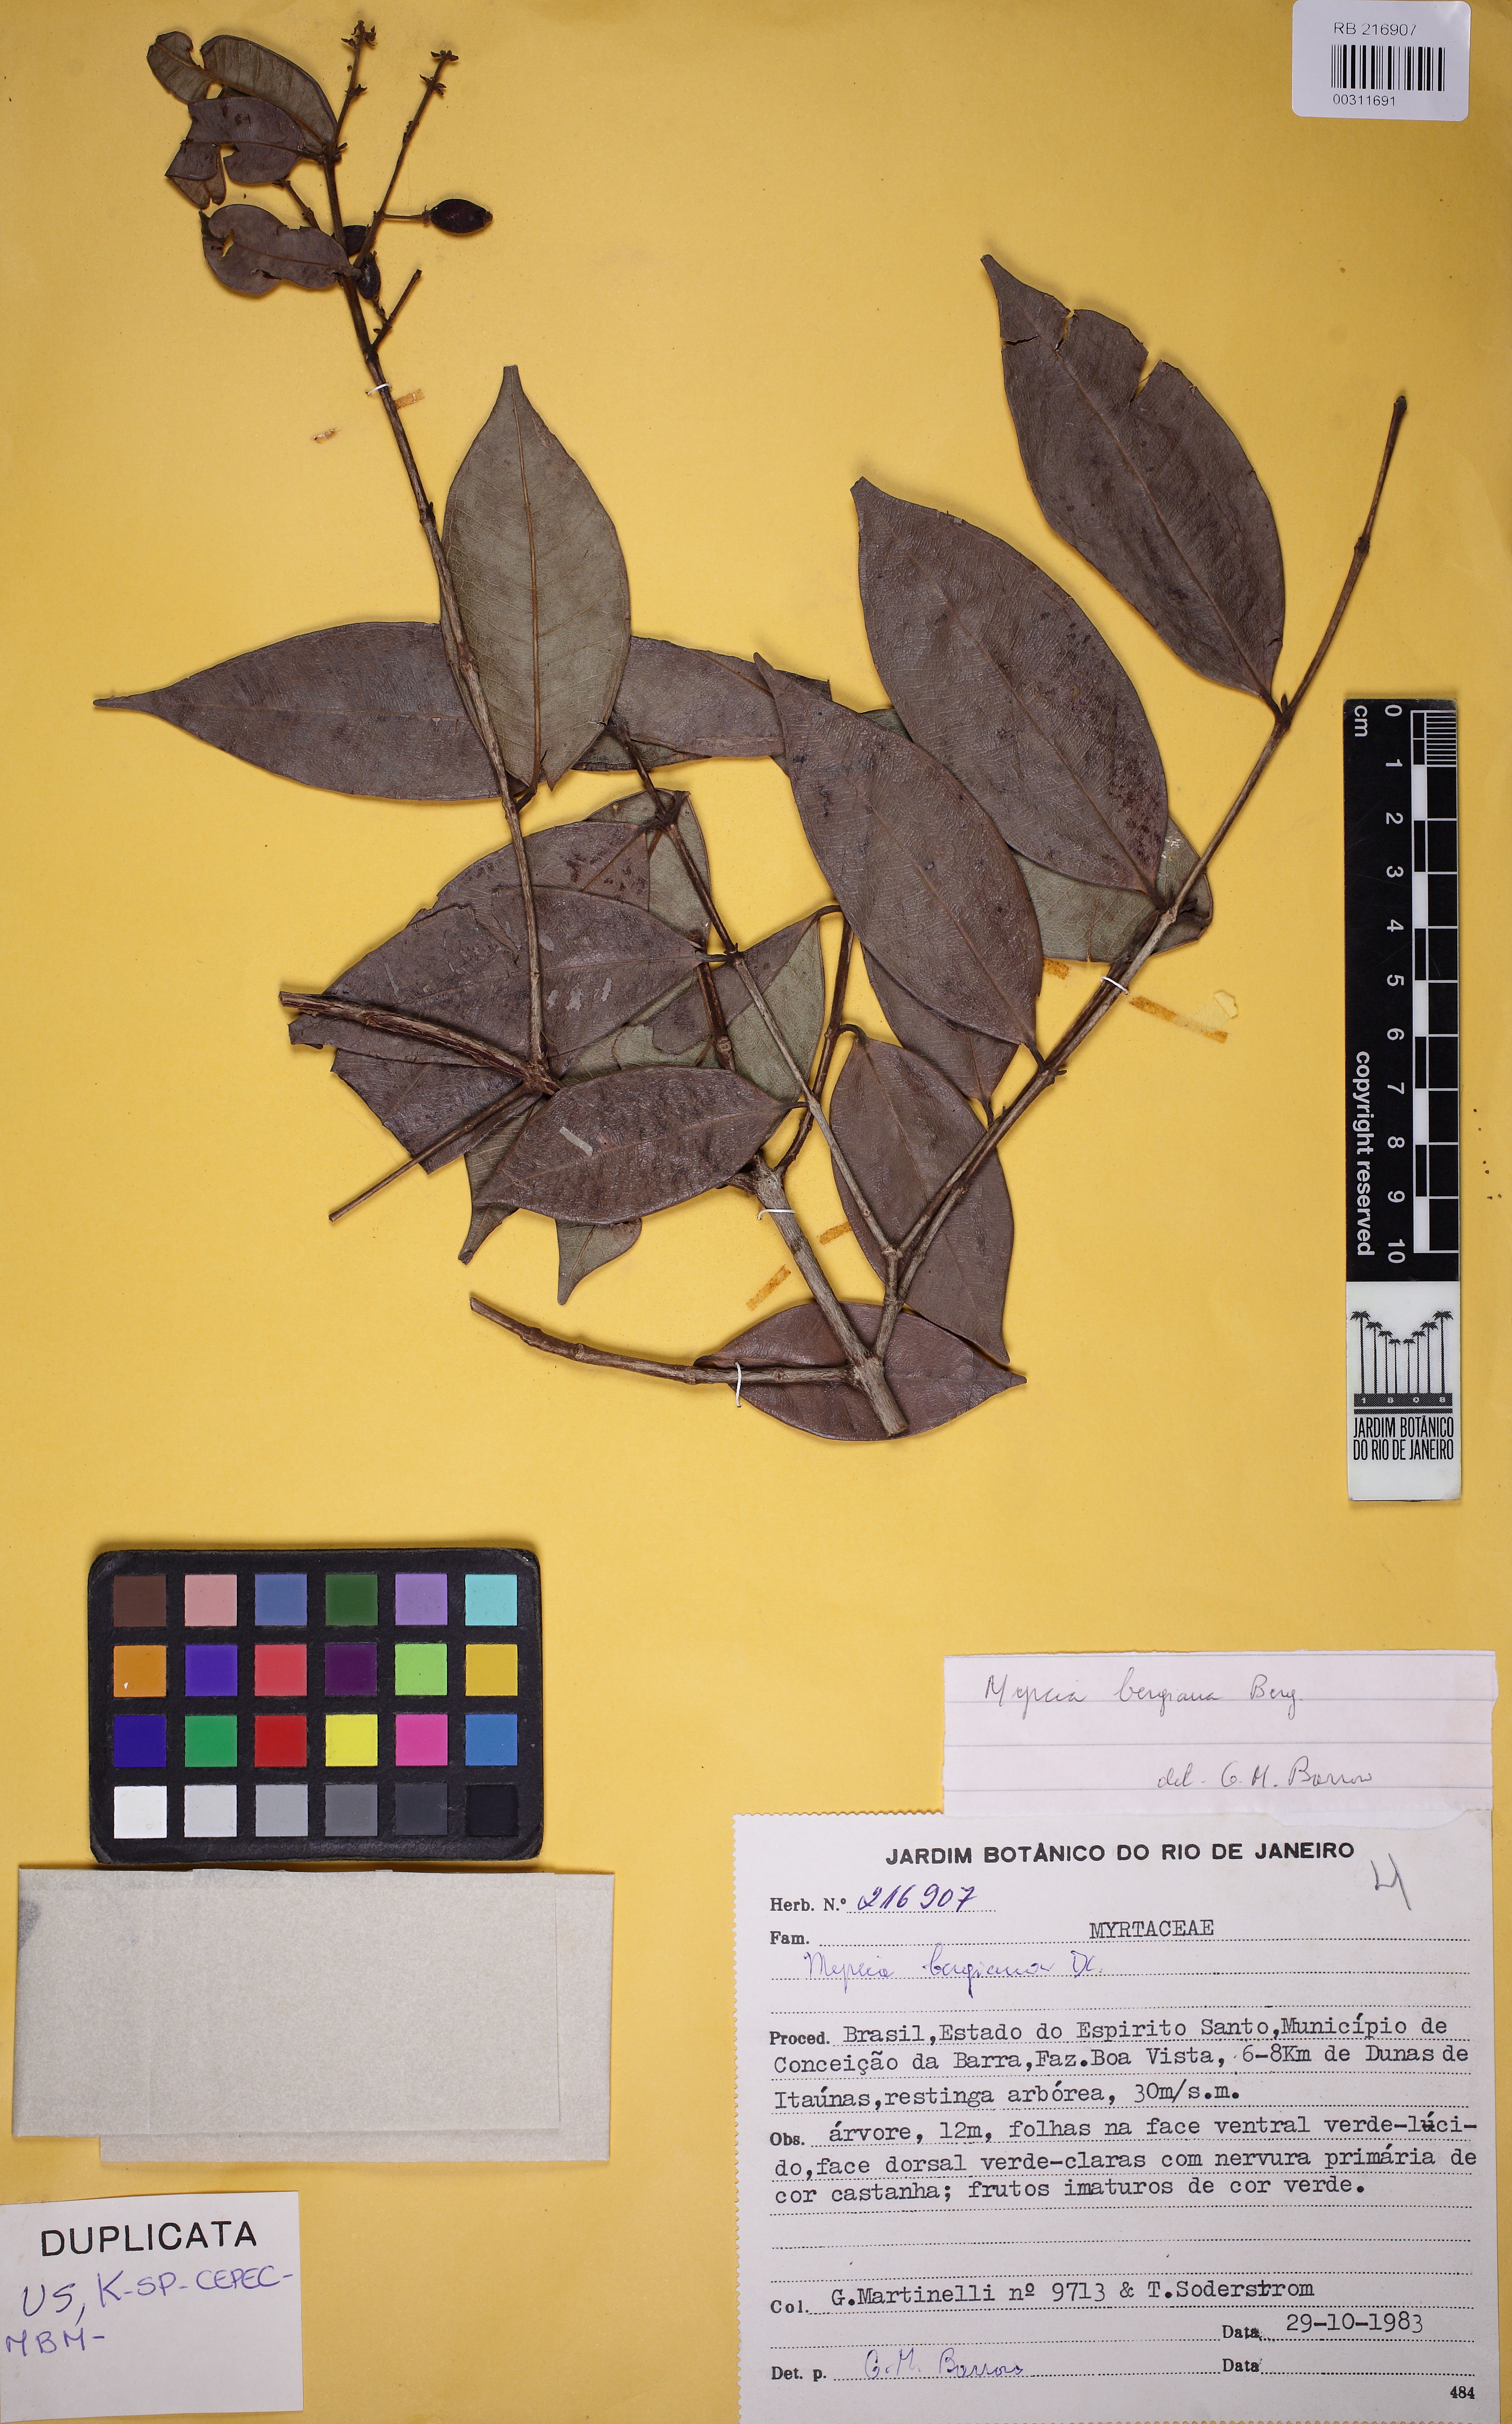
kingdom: Plantae
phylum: Tracheophyta
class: Magnoliopsida
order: Myrtales
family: Myrtaceae
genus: Myrcia
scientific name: Myrcia splendens
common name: Surinam cherry
